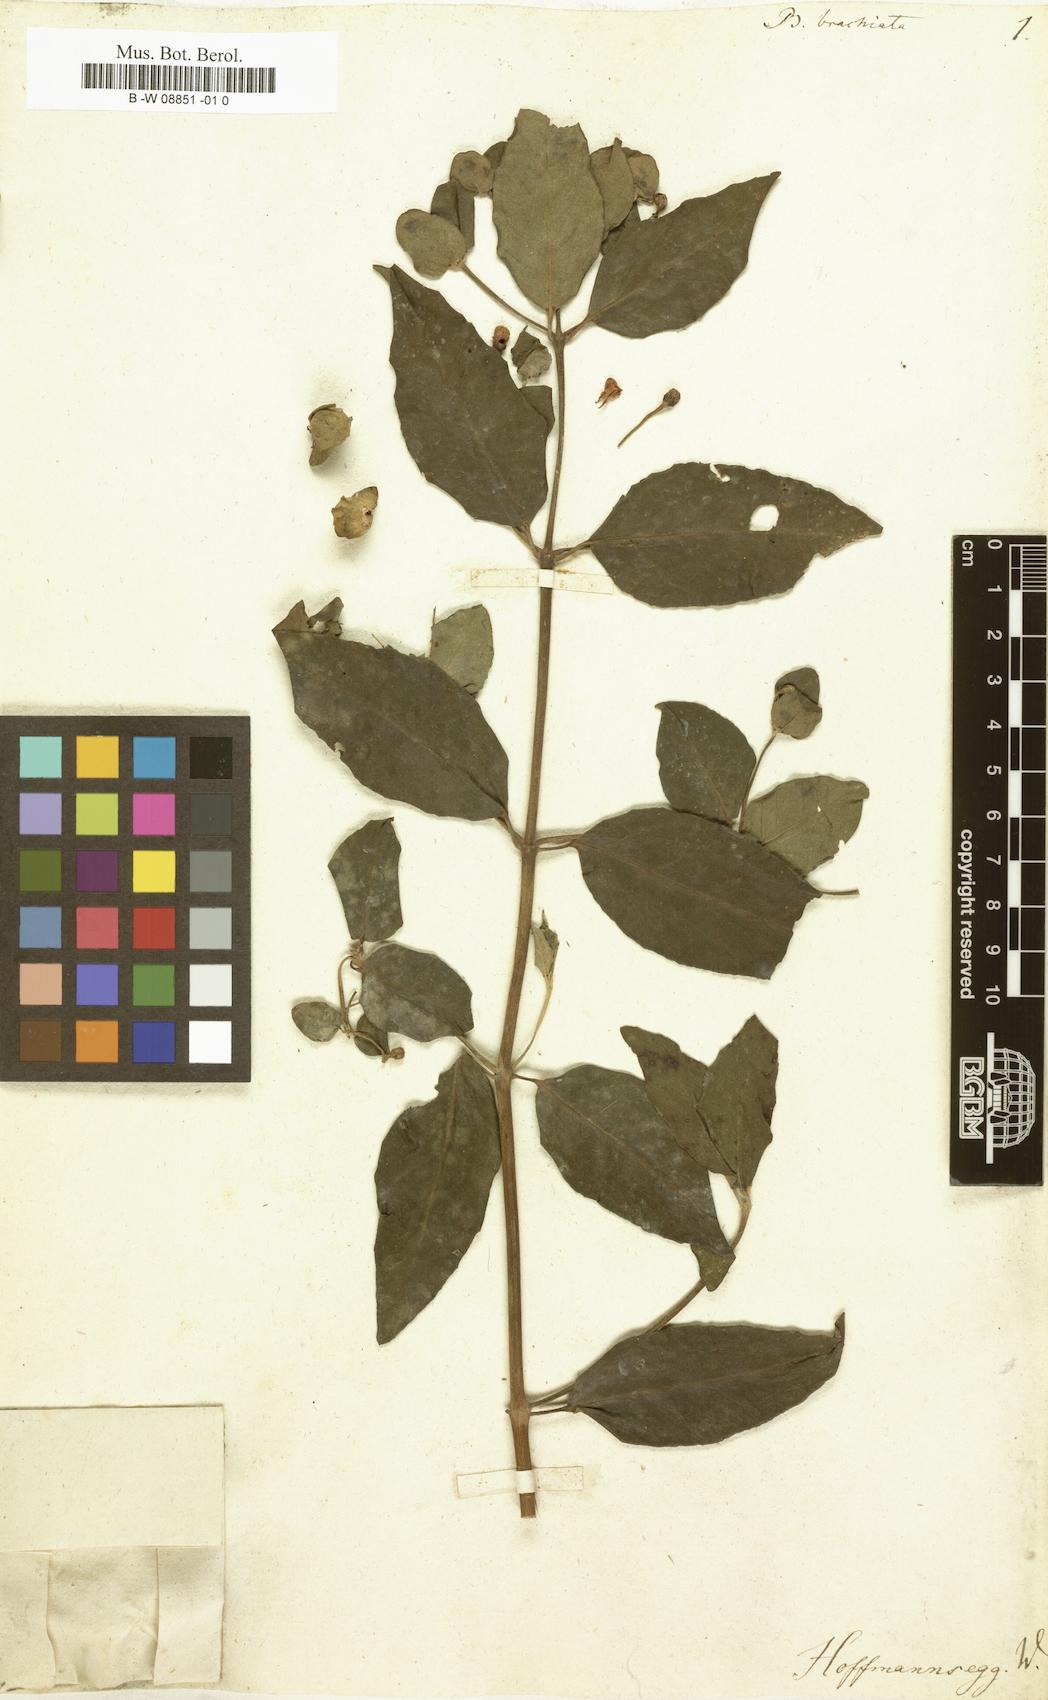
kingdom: Plantae
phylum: Tracheophyta
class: Magnoliopsida
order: Malpighiales
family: Malpighiaceae
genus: Heteropterys
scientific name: Heteropterys brachiata
